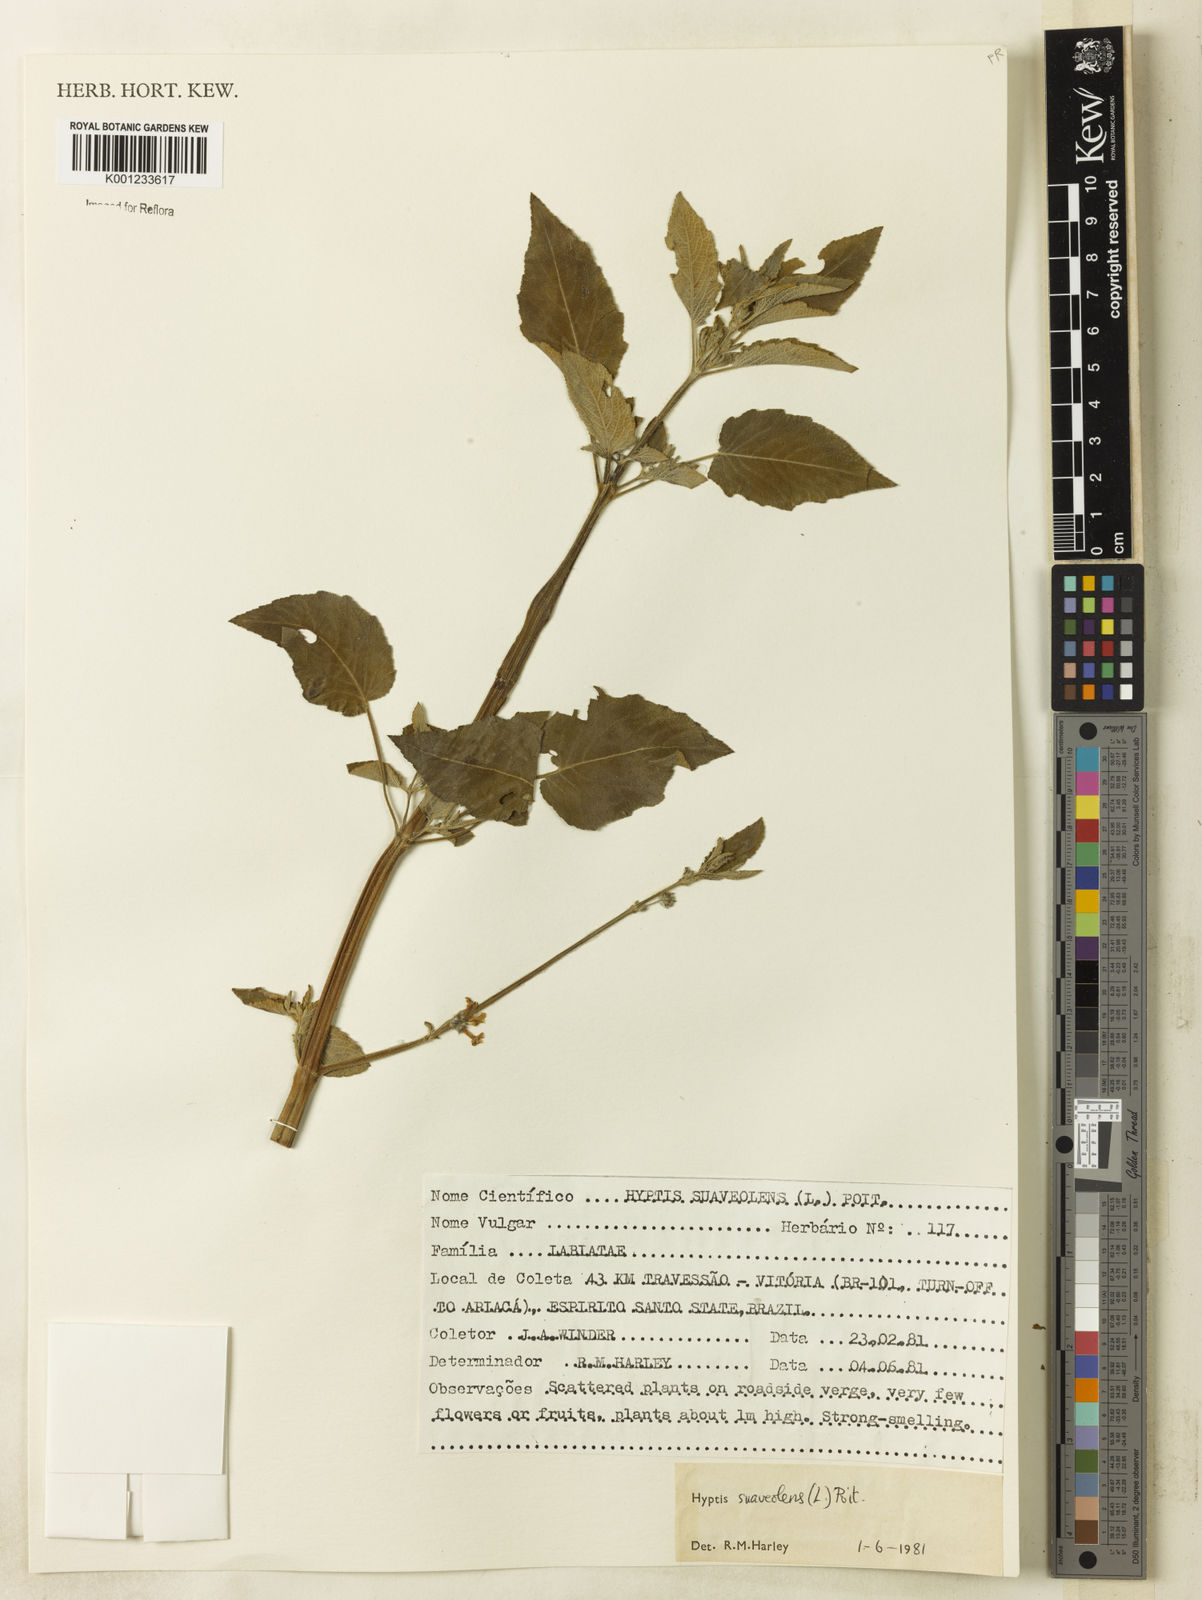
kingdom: Plantae
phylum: Tracheophyta
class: Magnoliopsida
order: Lamiales
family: Lamiaceae
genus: Mesosphaerum
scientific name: Mesosphaerum suaveolens
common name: Pignut
